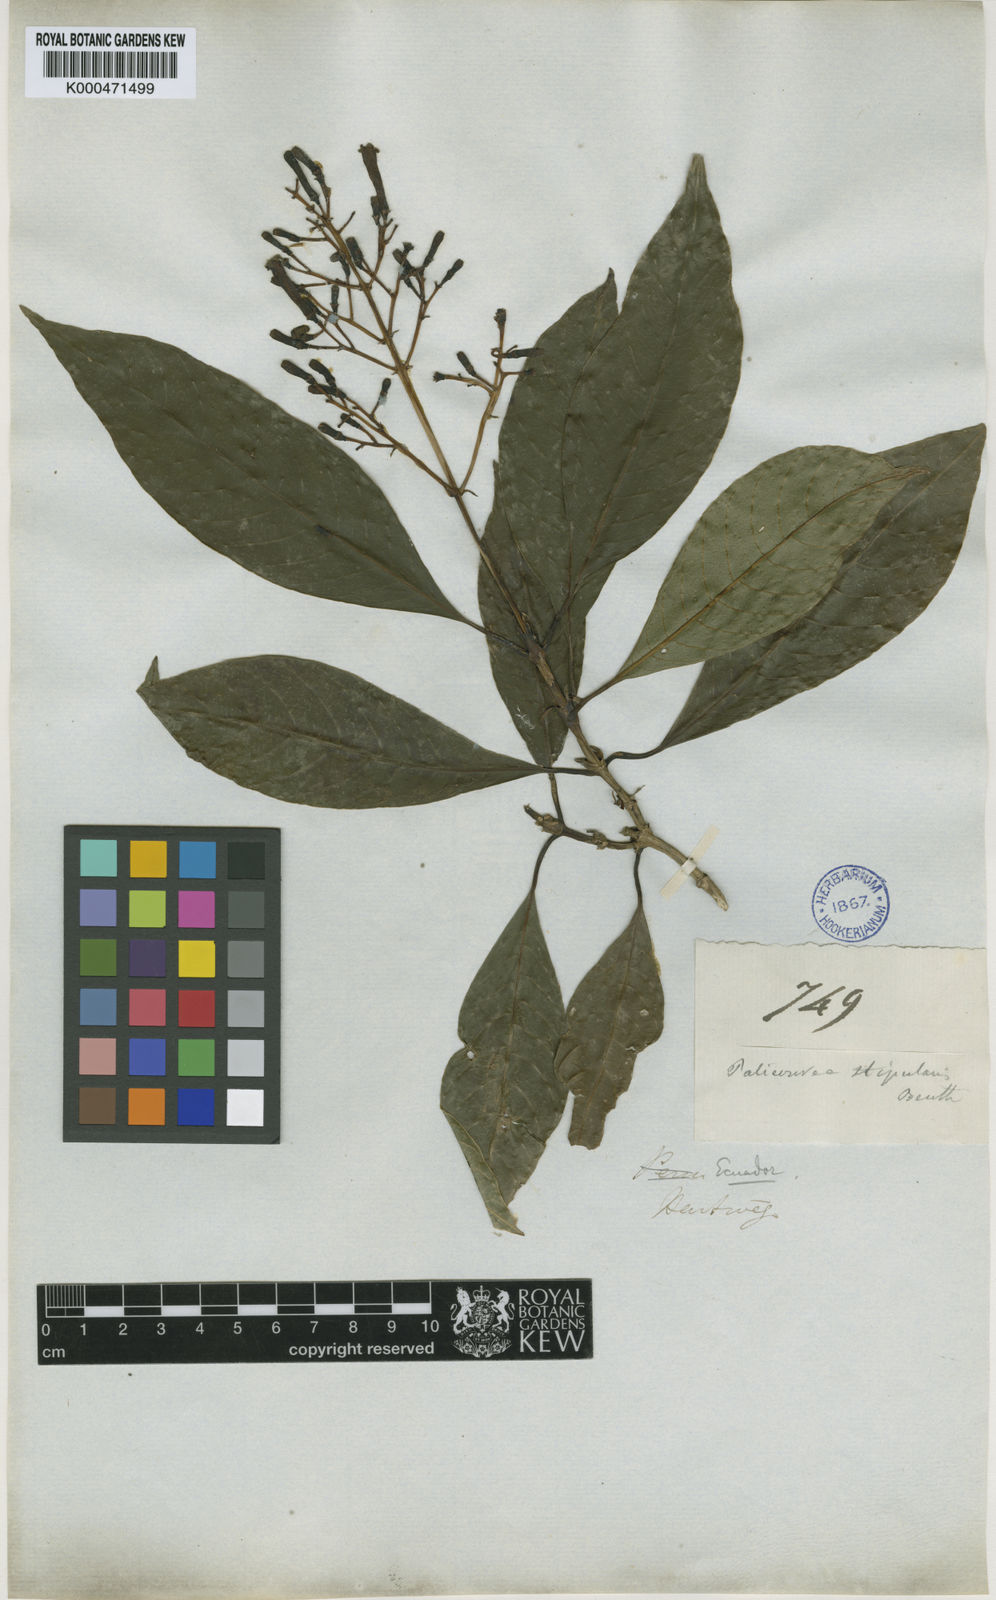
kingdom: Plantae
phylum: Tracheophyta
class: Magnoliopsida
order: Gentianales
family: Rubiaceae
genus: Palicourea
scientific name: Palicourea stipularis
